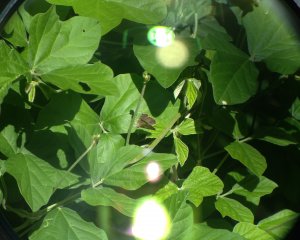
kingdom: Animalia
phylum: Arthropoda
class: Insecta
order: Lepidoptera
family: Lycaenidae
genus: Lampides
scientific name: Lampides boeticus
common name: Pea Blue
